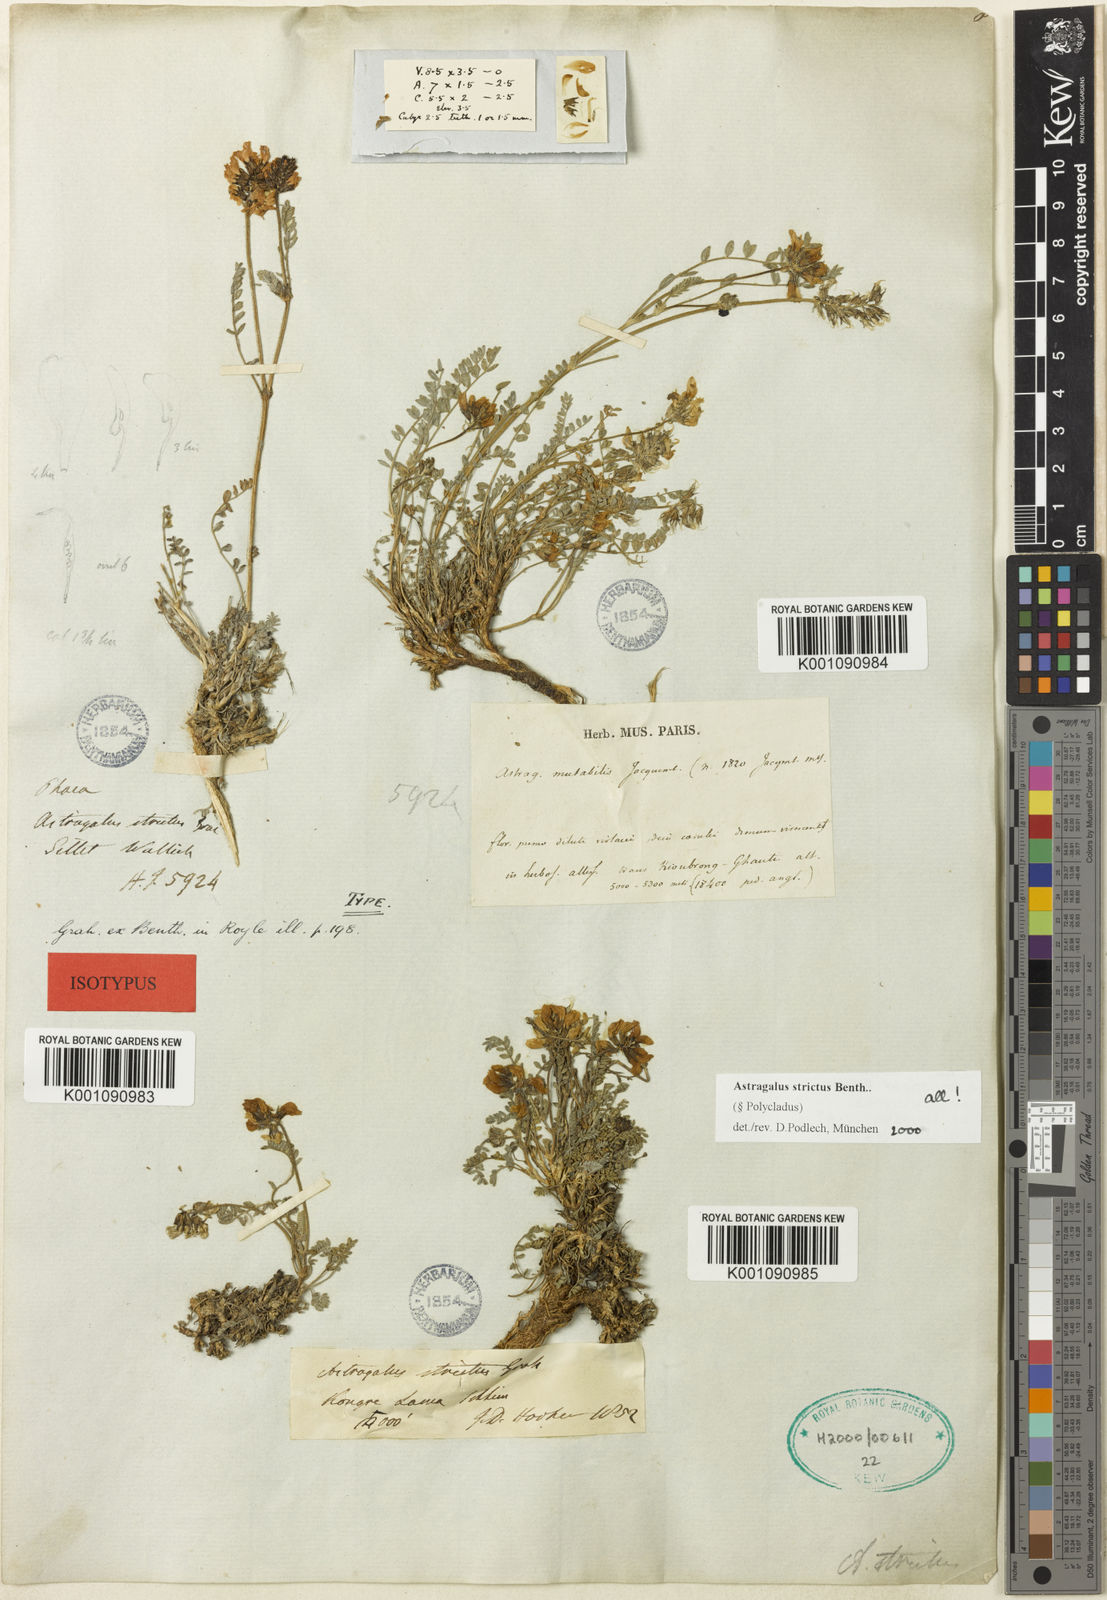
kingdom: Plantae
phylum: Tracheophyta
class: Magnoliopsida
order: Fabales
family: Fabaceae
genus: Astragalus
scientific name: Astragalus
